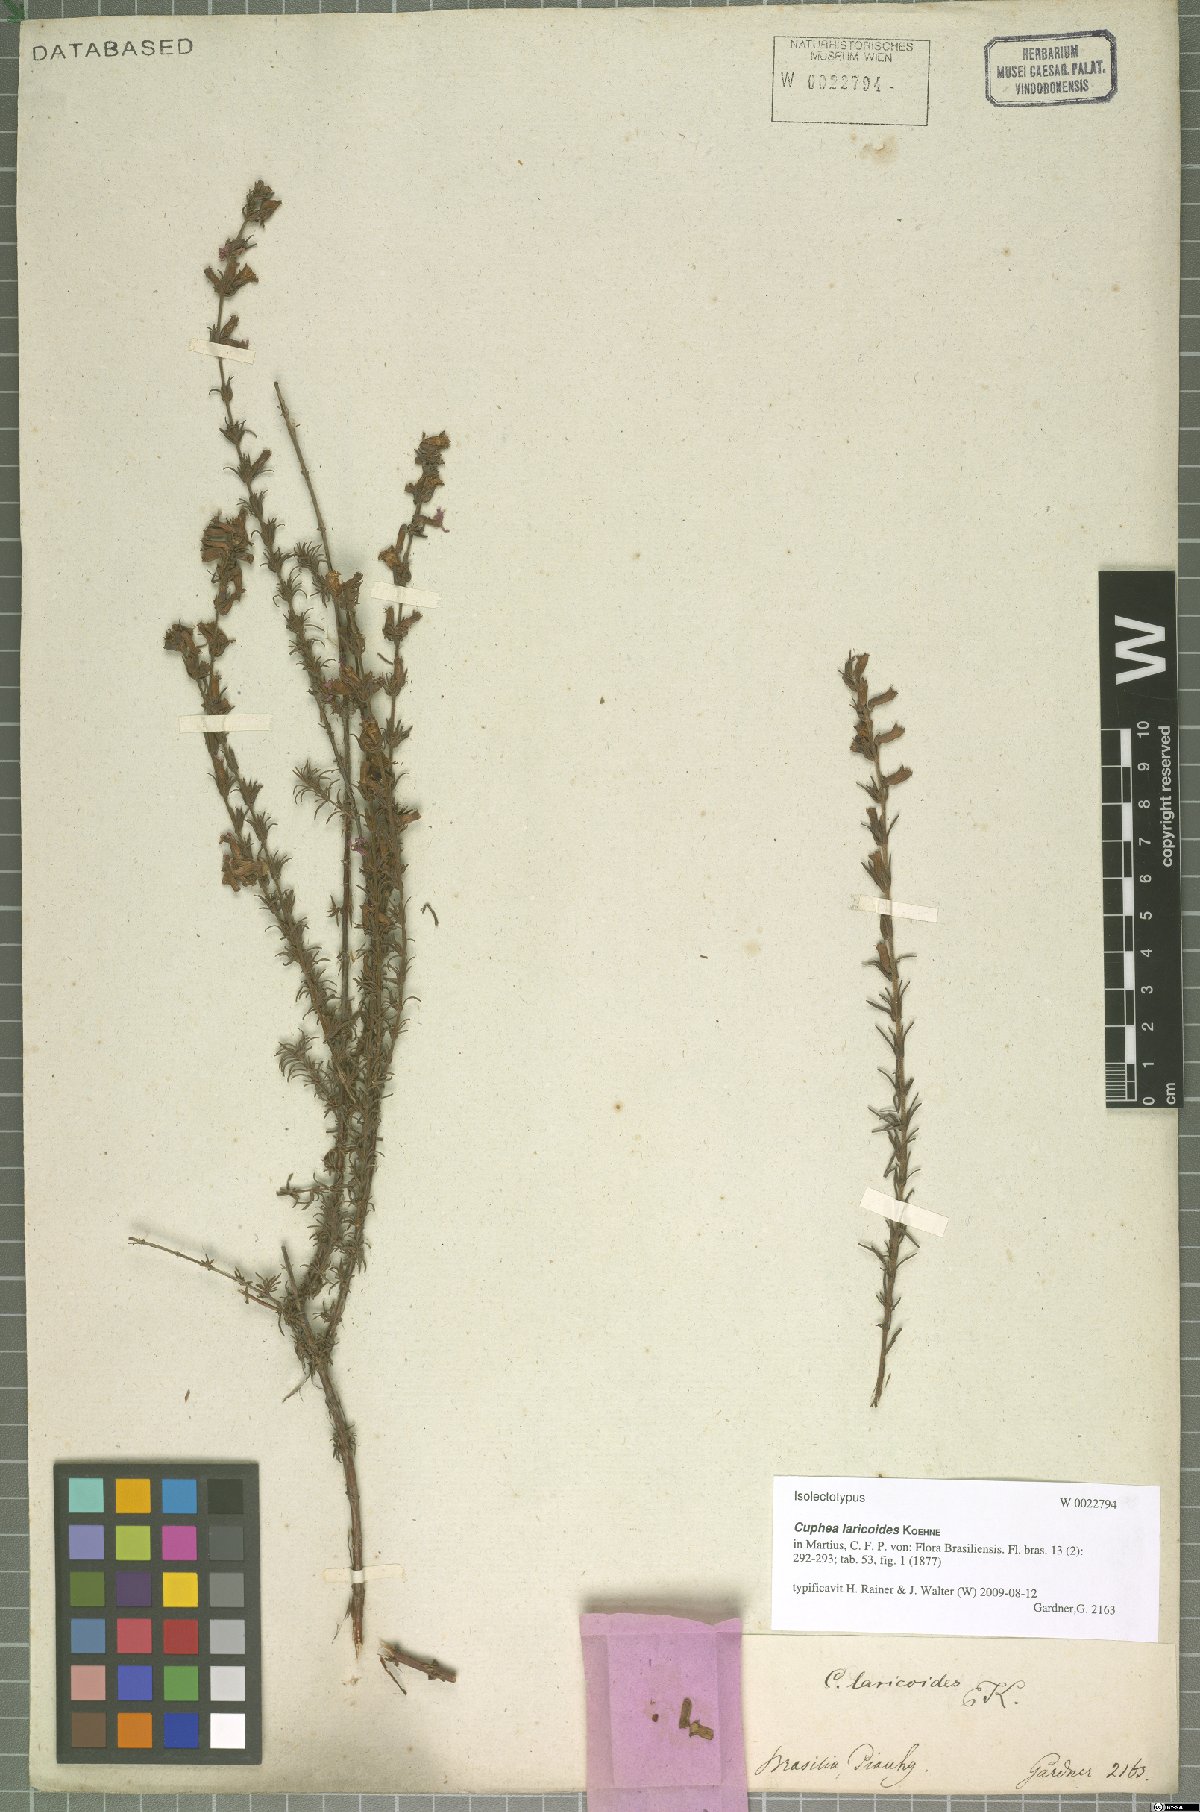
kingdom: Plantae
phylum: Tracheophyta
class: Magnoliopsida
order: Myrtales
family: Lythraceae
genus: Cuphea
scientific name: Cuphea laricoides
